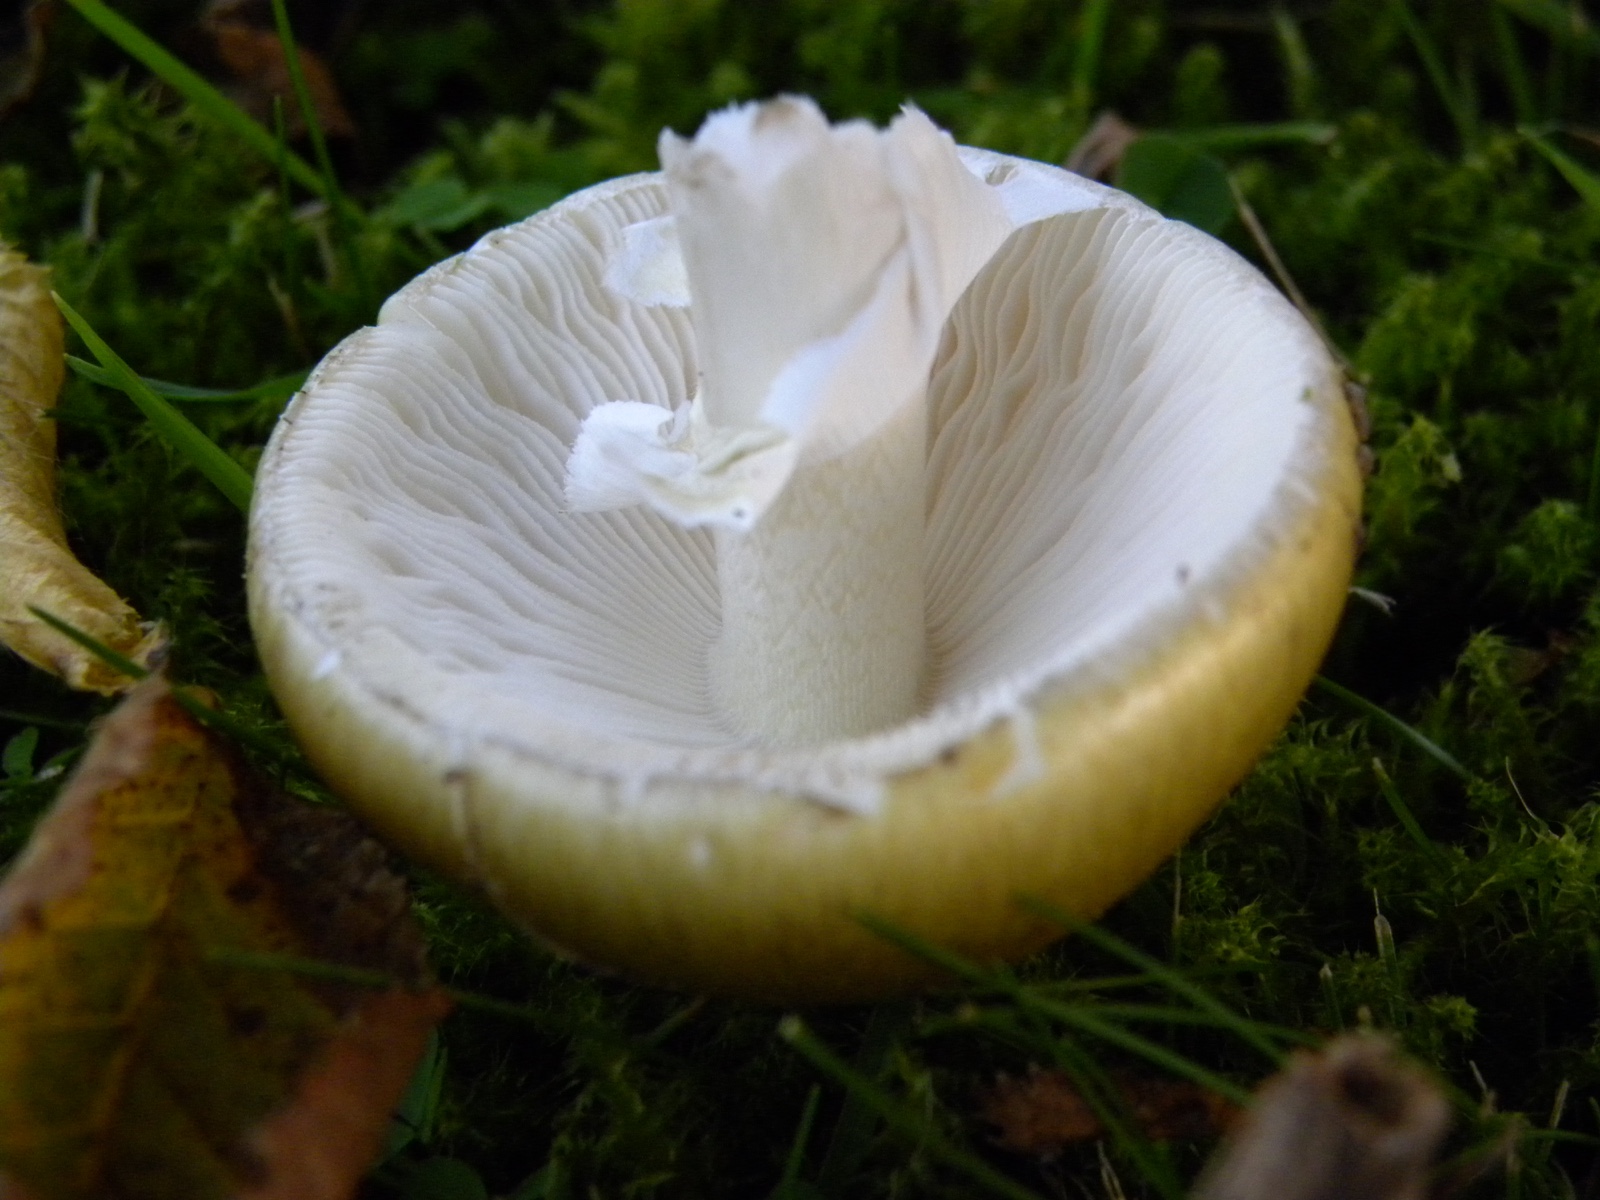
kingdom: Fungi
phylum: Basidiomycota
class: Agaricomycetes
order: Agaricales
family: Amanitaceae
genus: Amanita
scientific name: Amanita phalloides
